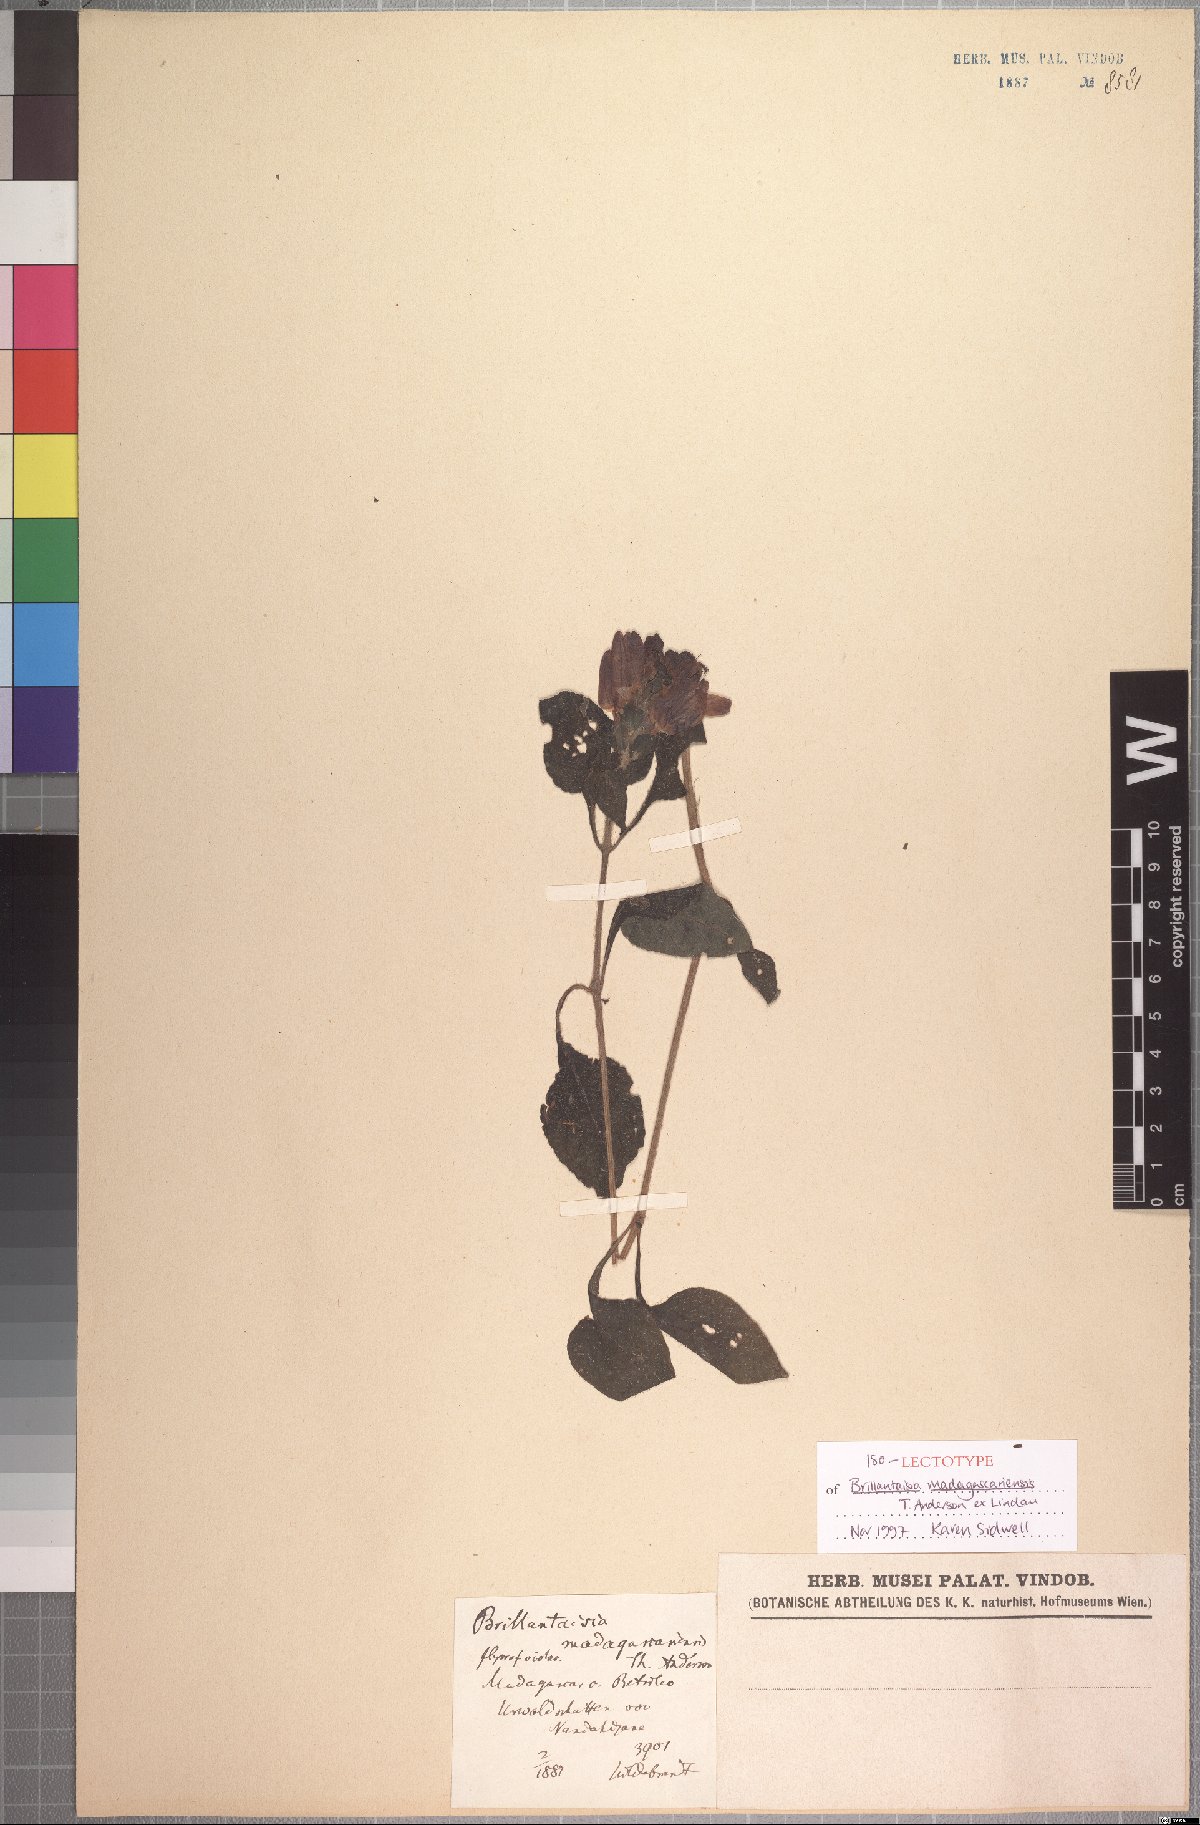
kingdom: Plantae
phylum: Tracheophyta
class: Magnoliopsida
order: Lamiales
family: Acanthaceae
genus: Brillantaisia
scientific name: Brillantaisia madagascariensis
